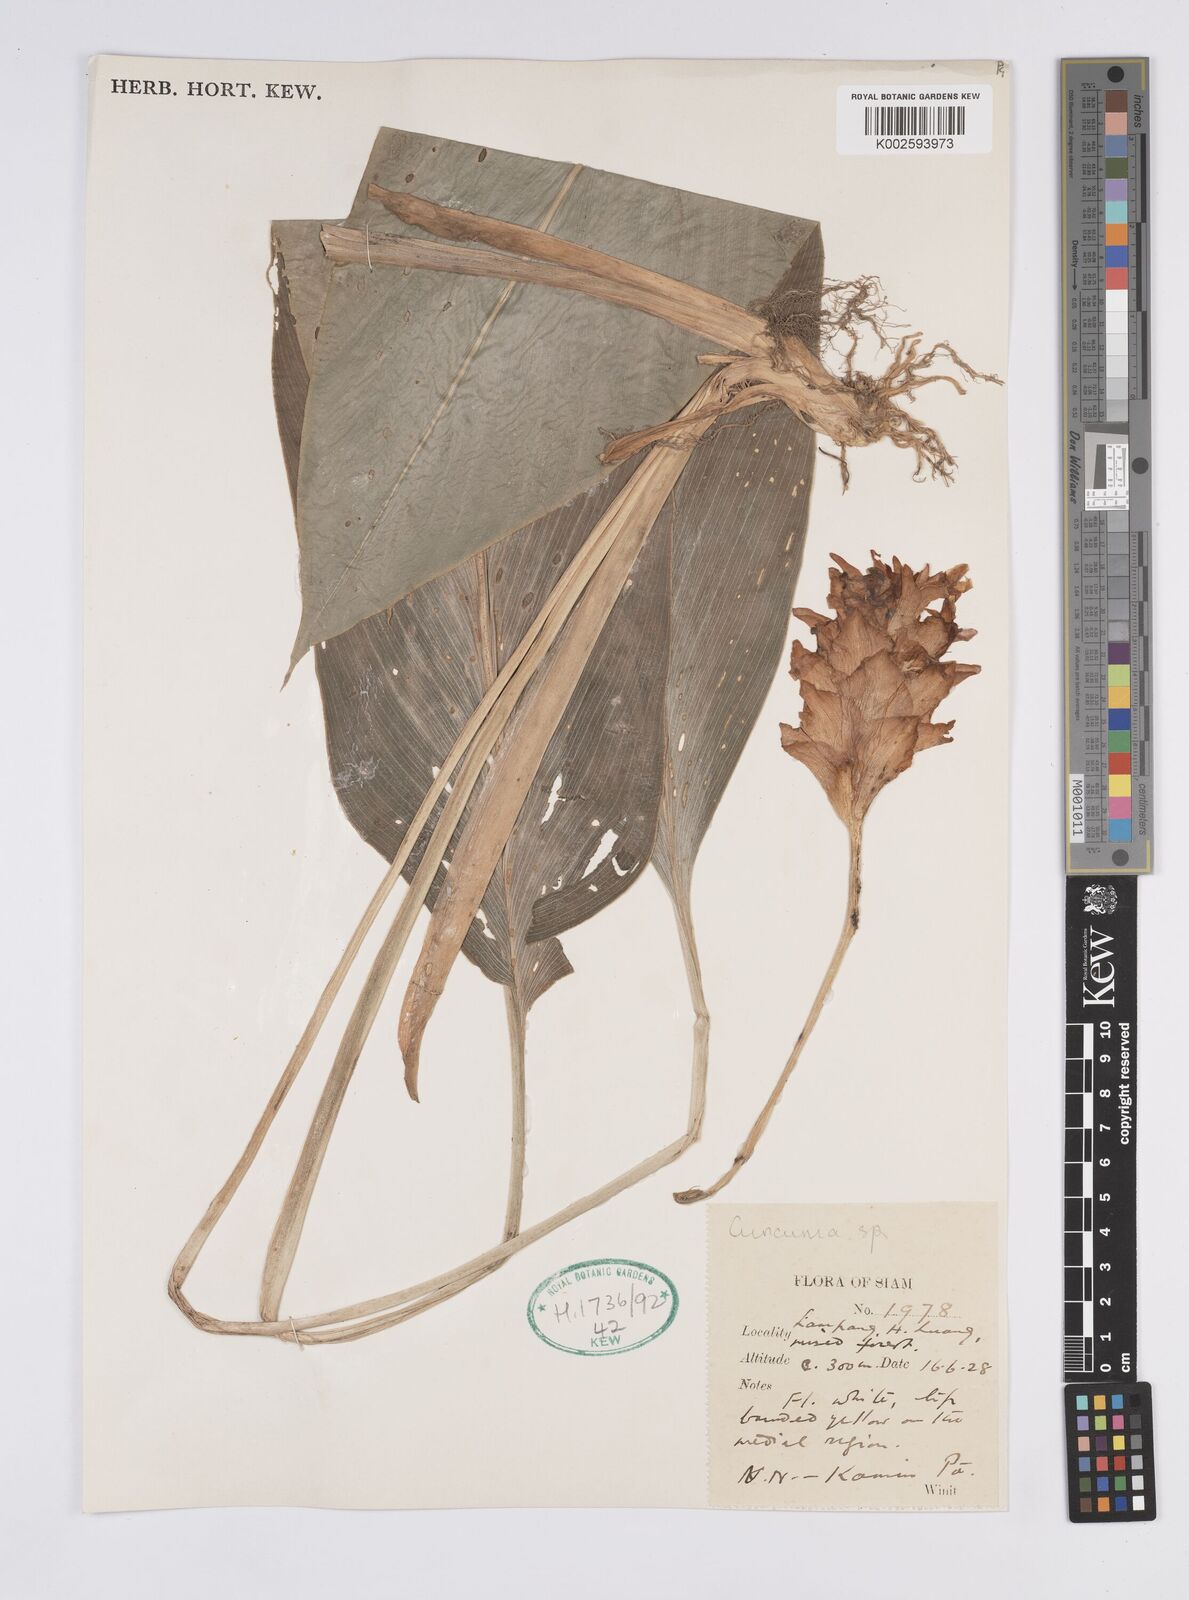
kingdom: Plantae
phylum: Tracheophyta
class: Liliopsida
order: Zingiberales
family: Zingiberaceae
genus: Curcuma
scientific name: Curcuma
